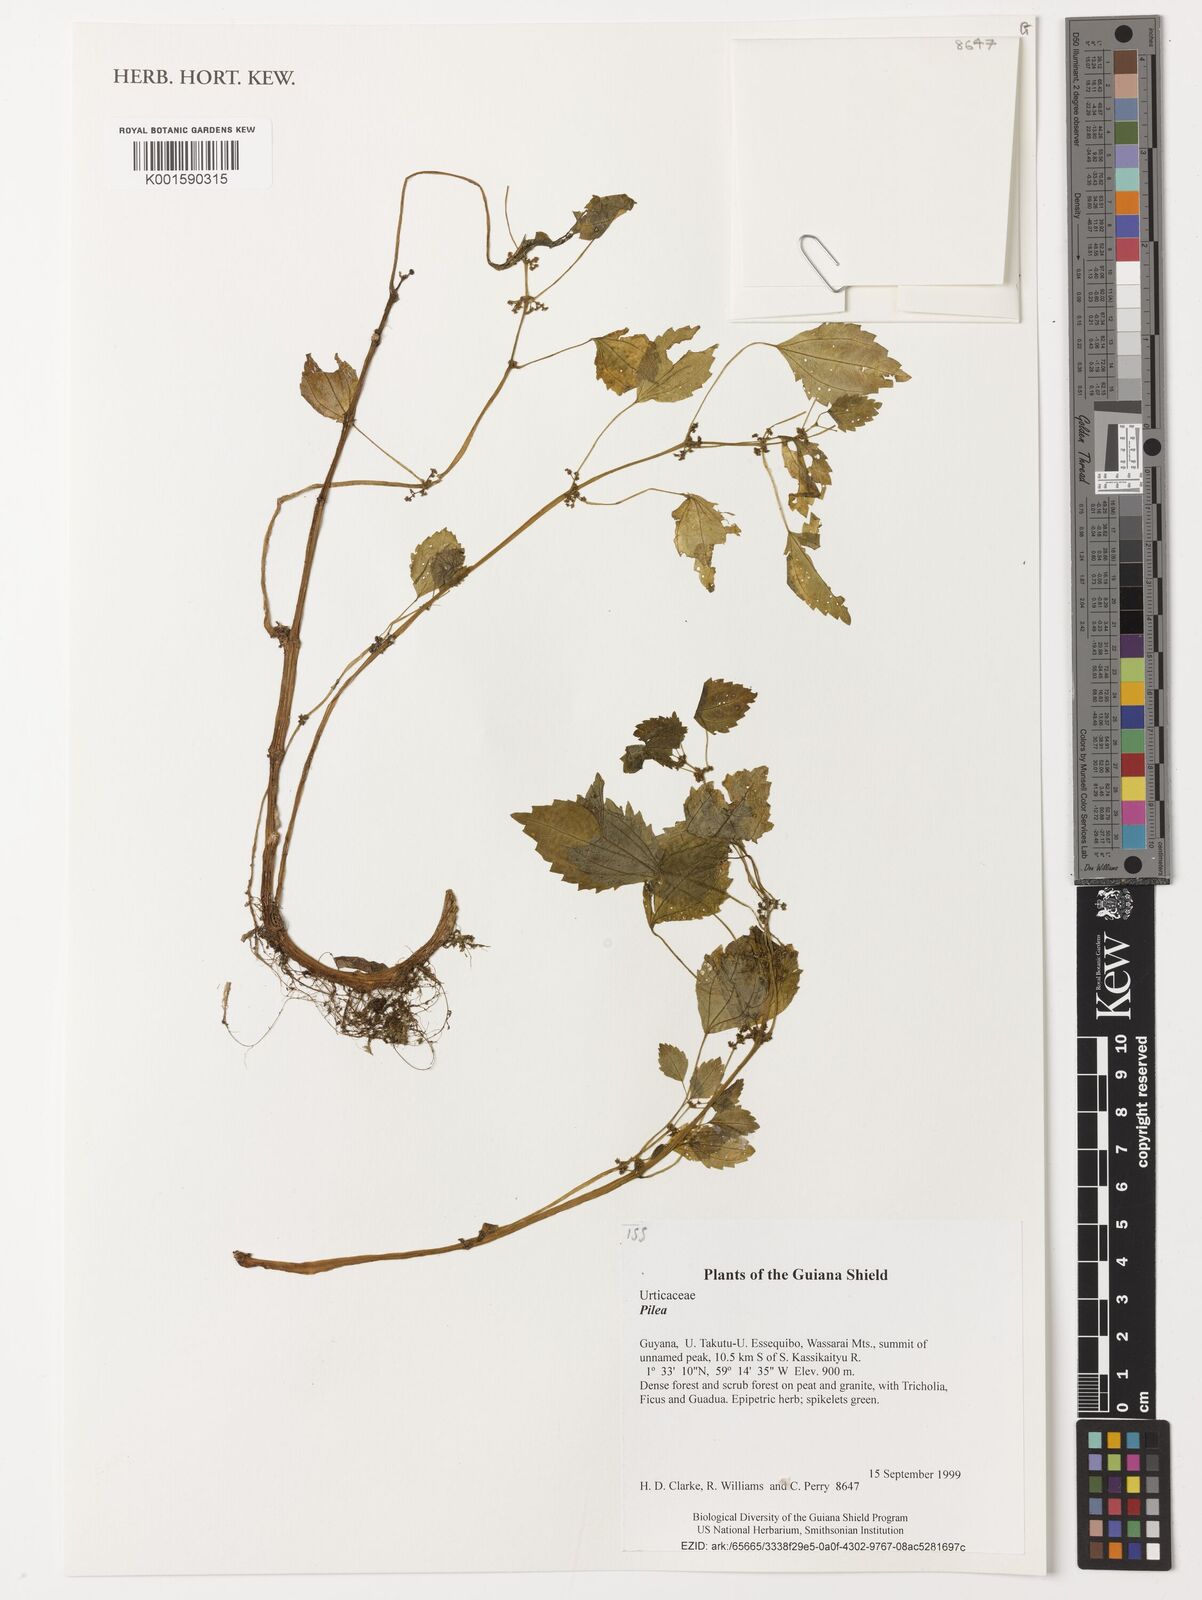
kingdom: Plantae
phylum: Tracheophyta
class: Magnoliopsida
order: Rosales
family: Urticaceae
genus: Pilea
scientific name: Pilea
